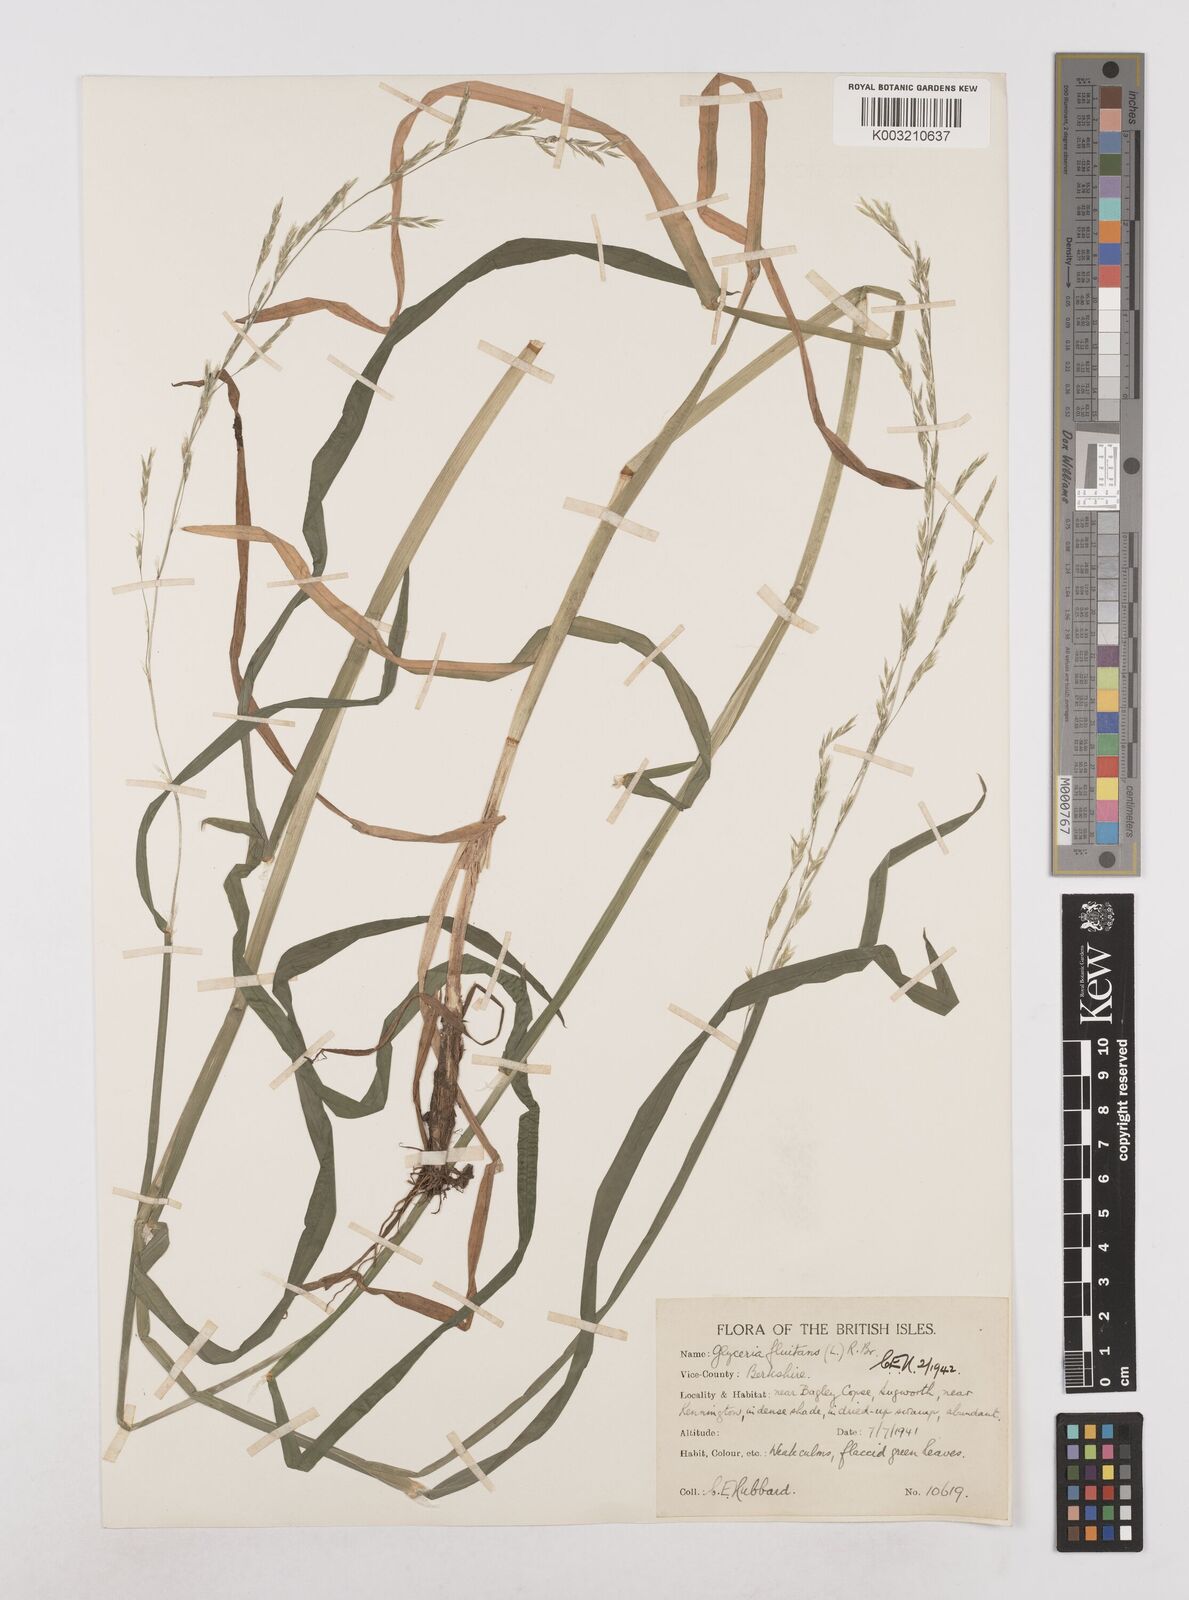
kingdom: Plantae
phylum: Tracheophyta
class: Liliopsida
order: Poales
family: Poaceae
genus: Glyceria
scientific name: Glyceria fluitans
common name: Floating sweet-grass
